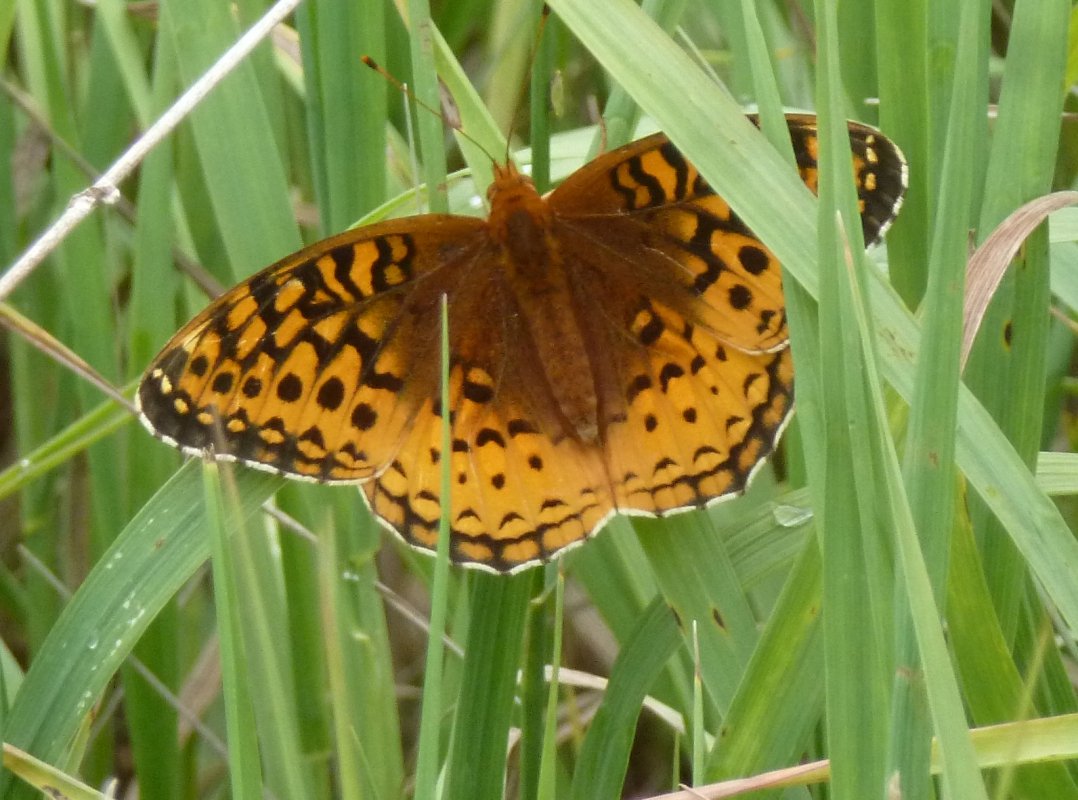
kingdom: Animalia
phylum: Arthropoda
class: Insecta
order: Lepidoptera
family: Nymphalidae
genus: Speyeria
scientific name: Speyeria aphrodite
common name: Aphrodite Fritillary
